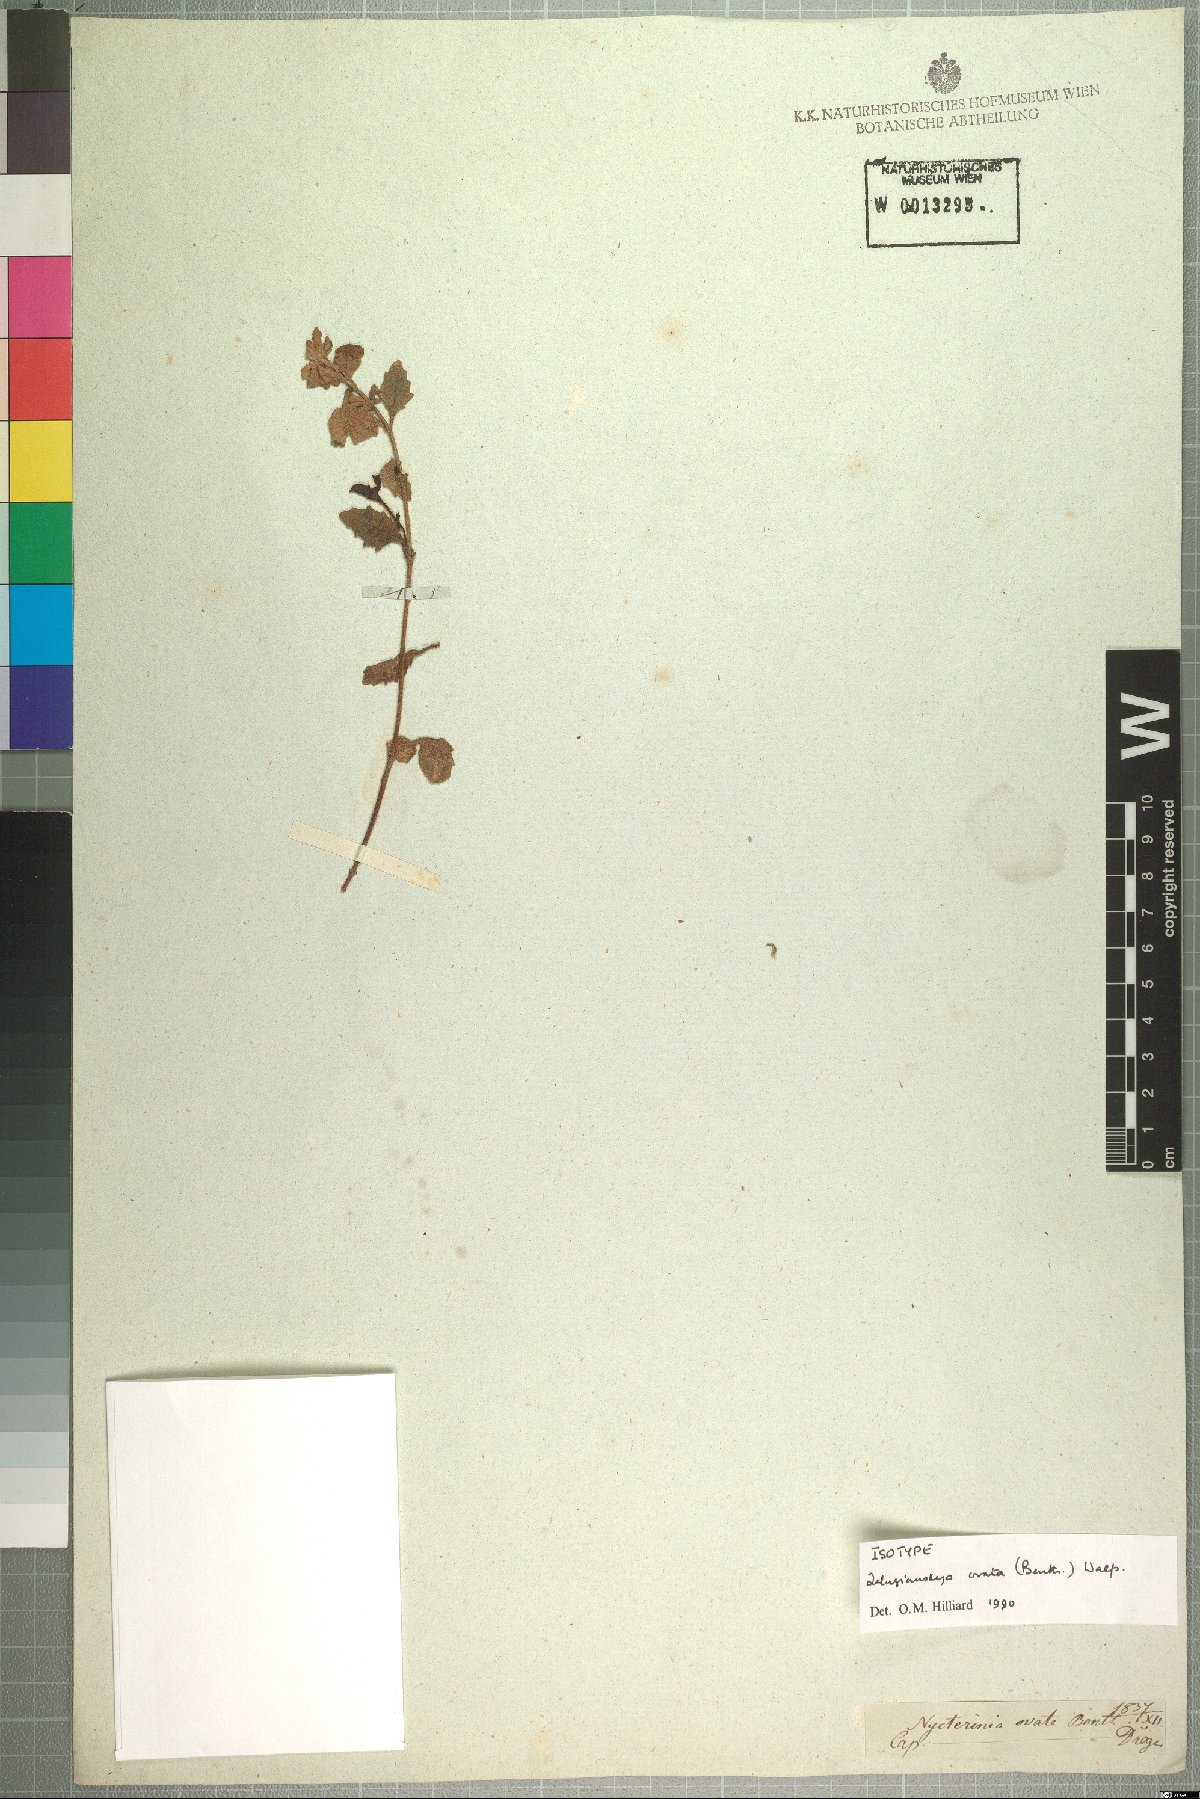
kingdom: Plantae
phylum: Tracheophyta
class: Magnoliopsida
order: Lamiales
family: Scrophulariaceae
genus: Zaluzianskya
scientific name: Zaluzianskya ovata
